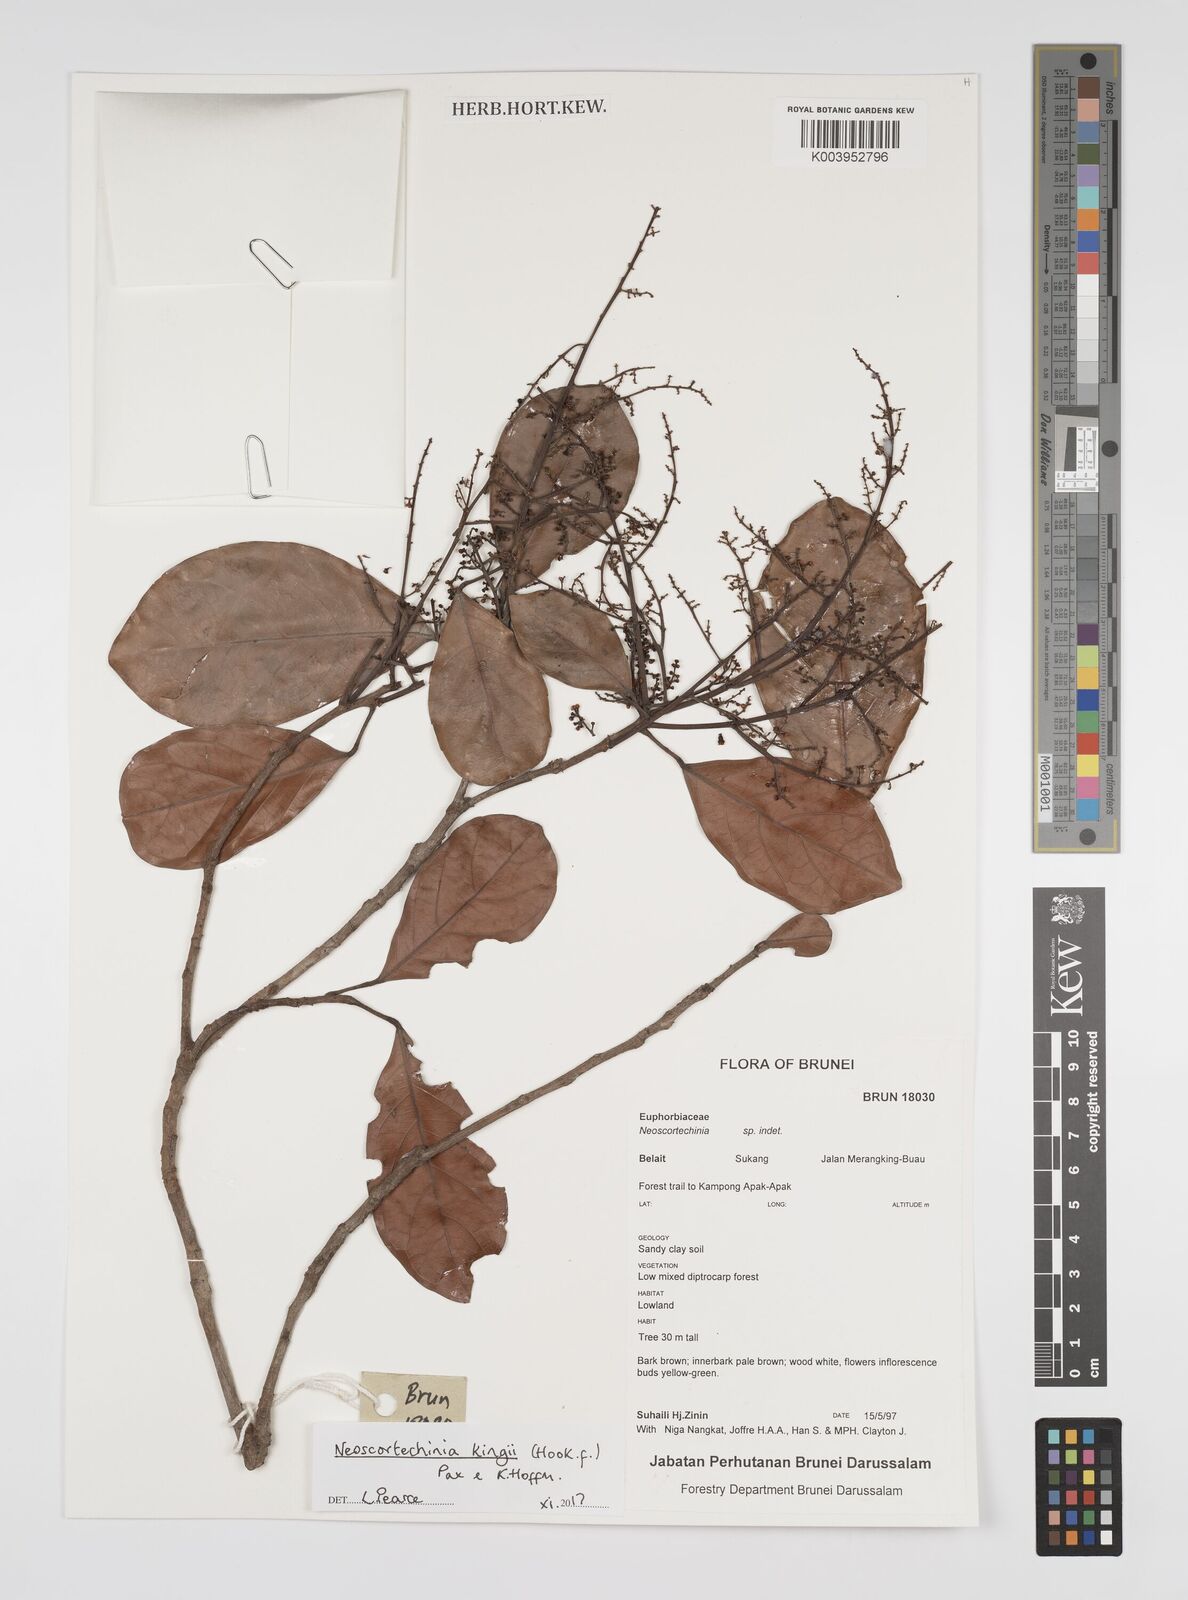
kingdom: Plantae
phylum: Tracheophyta
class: Magnoliopsida
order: Malpighiales
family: Euphorbiaceae
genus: Neoscortechinia
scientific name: Neoscortechinia kingii
